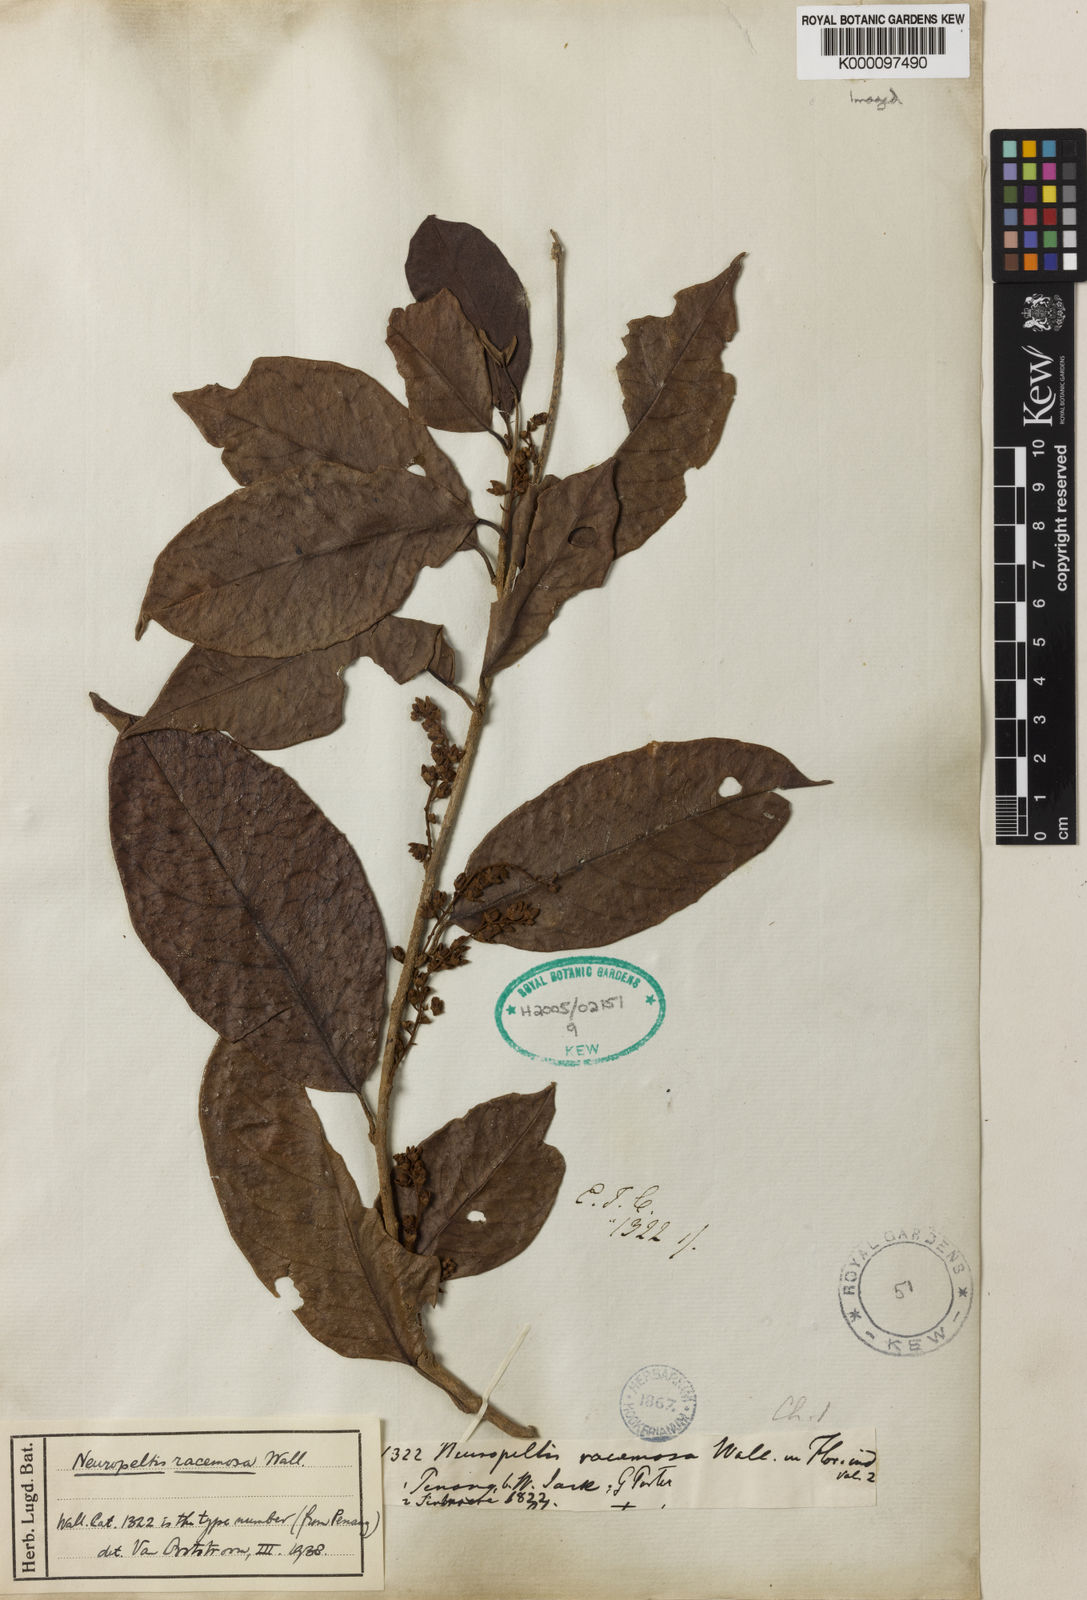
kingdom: Plantae
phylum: Tracheophyta
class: Magnoliopsida
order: Solanales
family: Convolvulaceae
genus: Neuropeltis
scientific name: Neuropeltis racemosa
